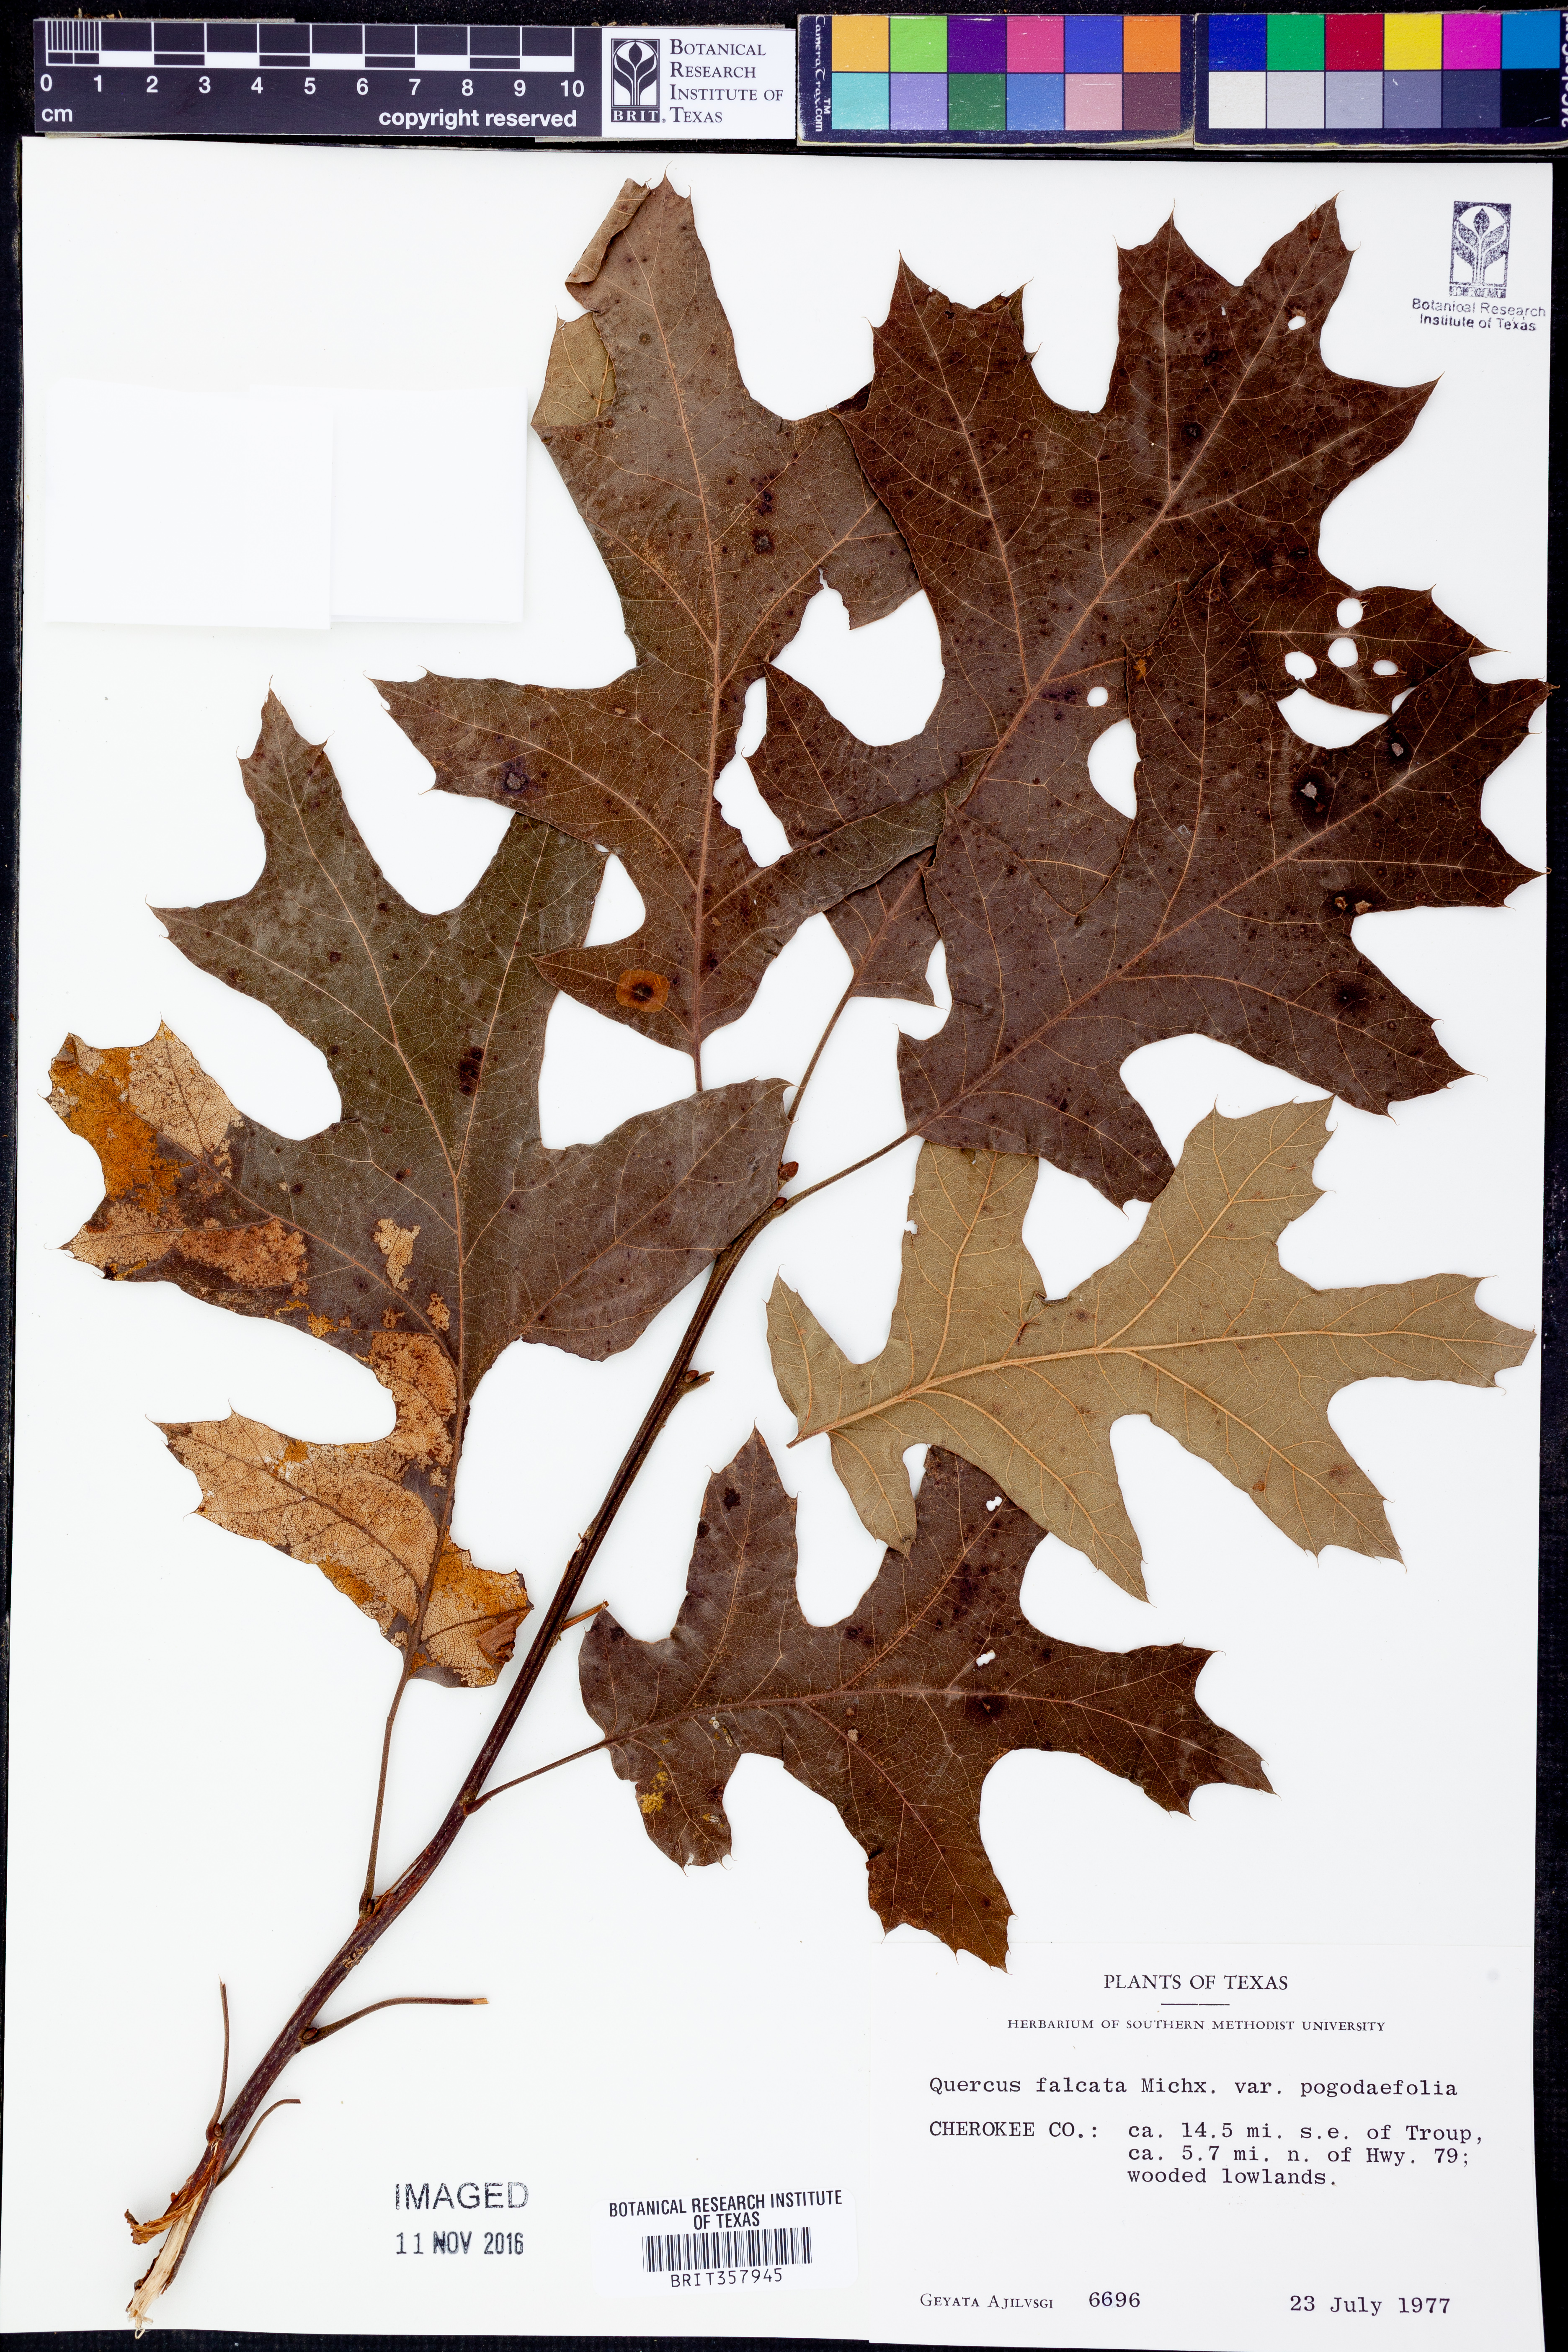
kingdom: Plantae
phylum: Tracheophyta
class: Magnoliopsida
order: Fagales
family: Fagaceae
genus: Quercus
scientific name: Quercus pagoda
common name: Cherrybark oak
